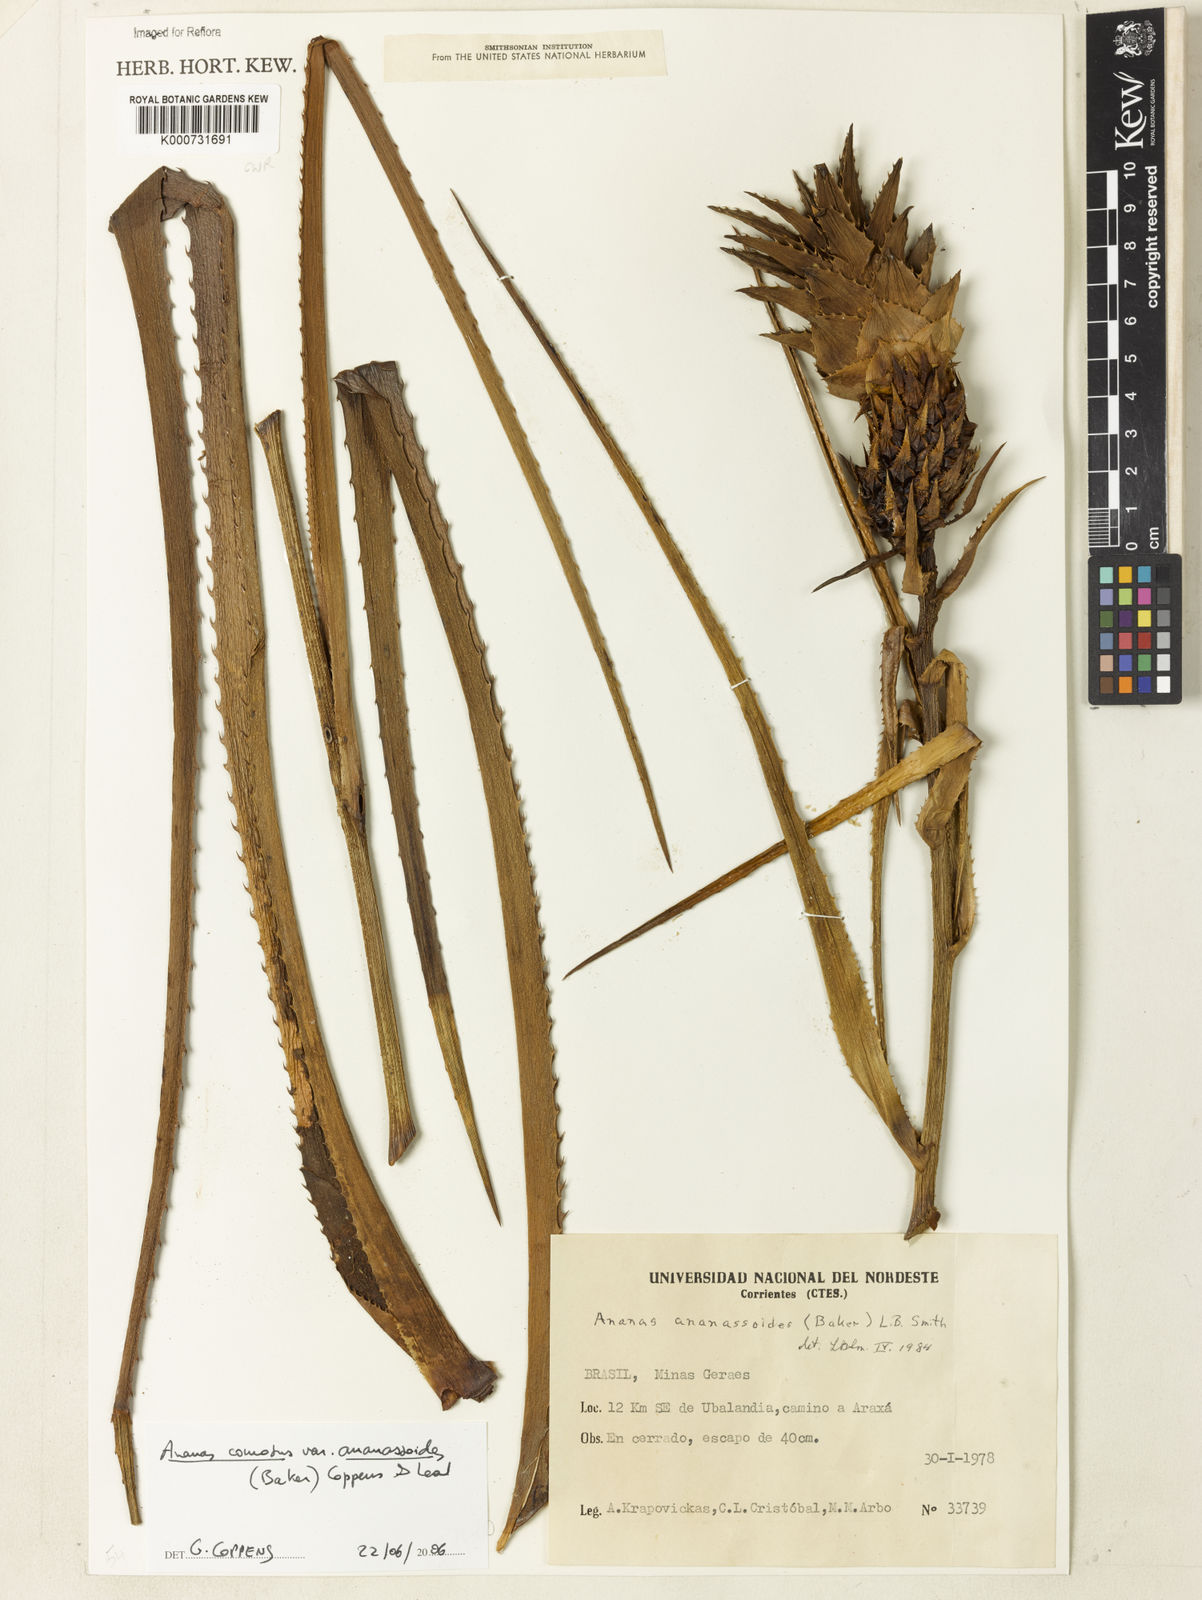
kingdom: Plantae
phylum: Tracheophyta
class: Liliopsida
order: Poales
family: Bromeliaceae
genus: Ananas
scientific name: Ananas comosus
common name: Pineapple
